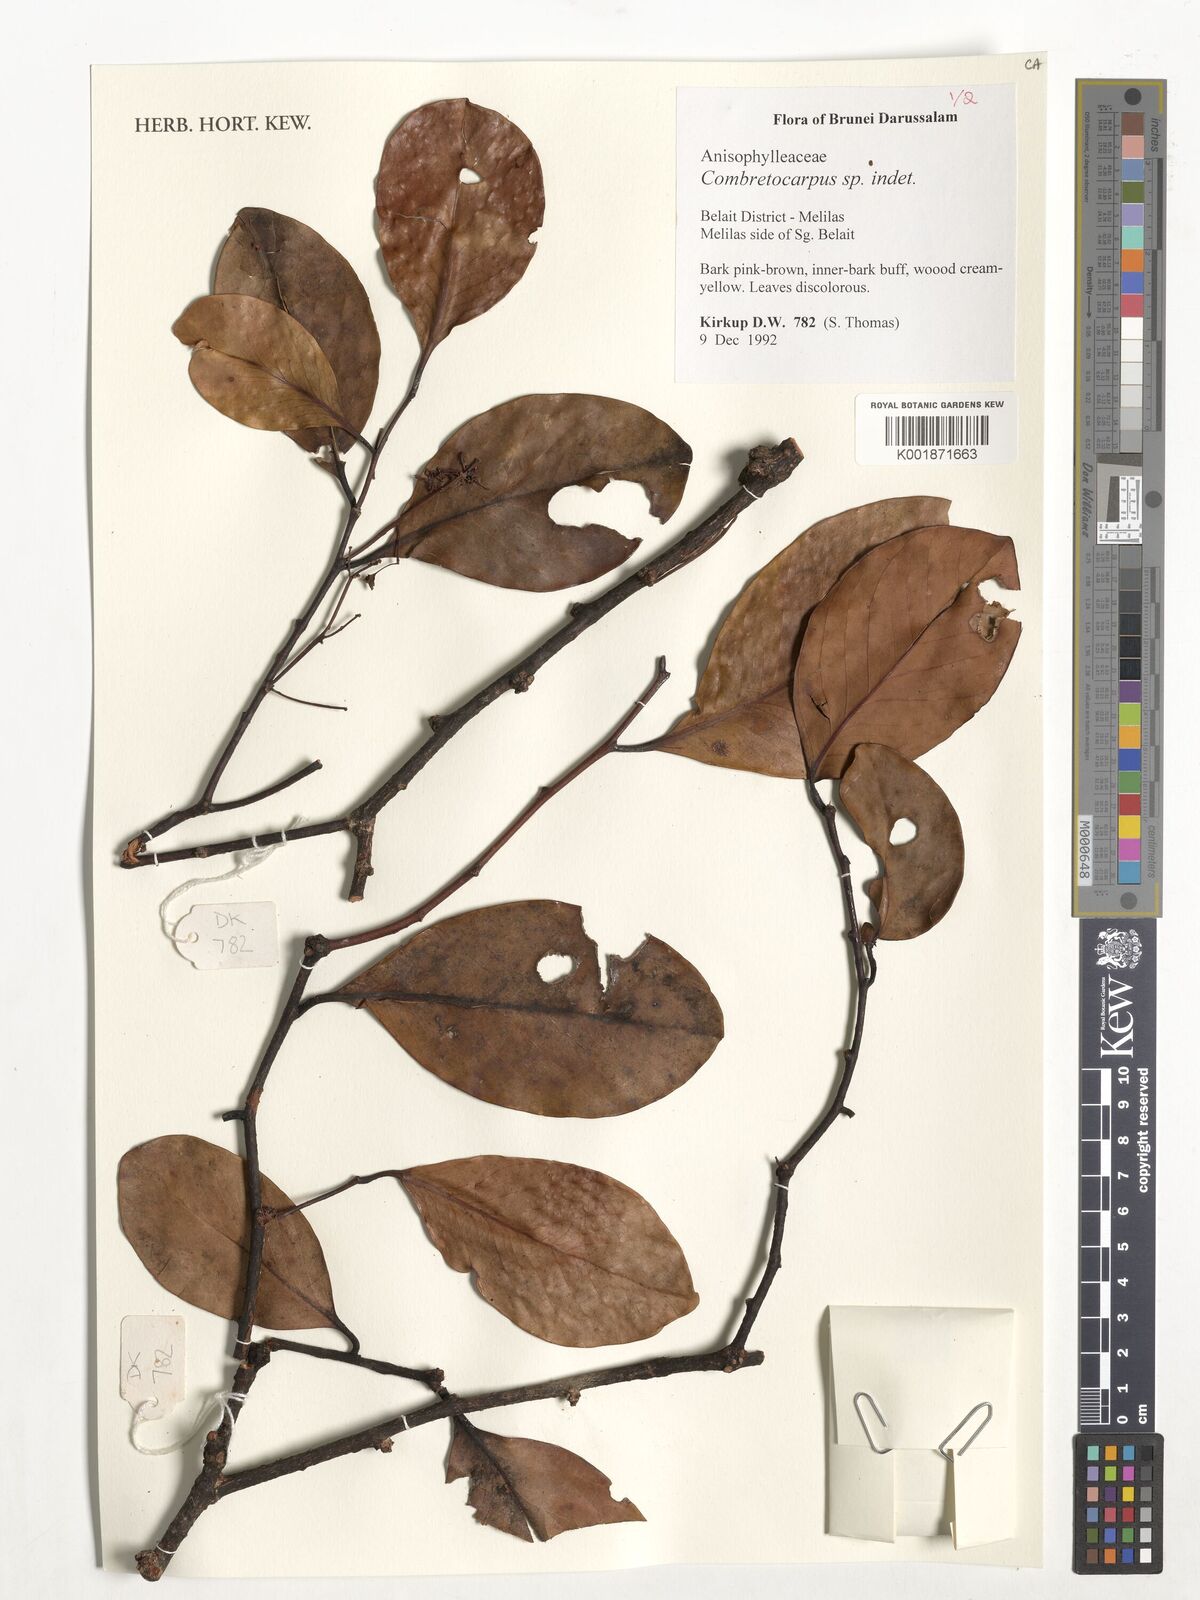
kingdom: Plantae
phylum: Tracheophyta
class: Magnoliopsida
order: Cucurbitales
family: Anisophylleaceae
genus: Combretocarpus
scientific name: Combretocarpus
